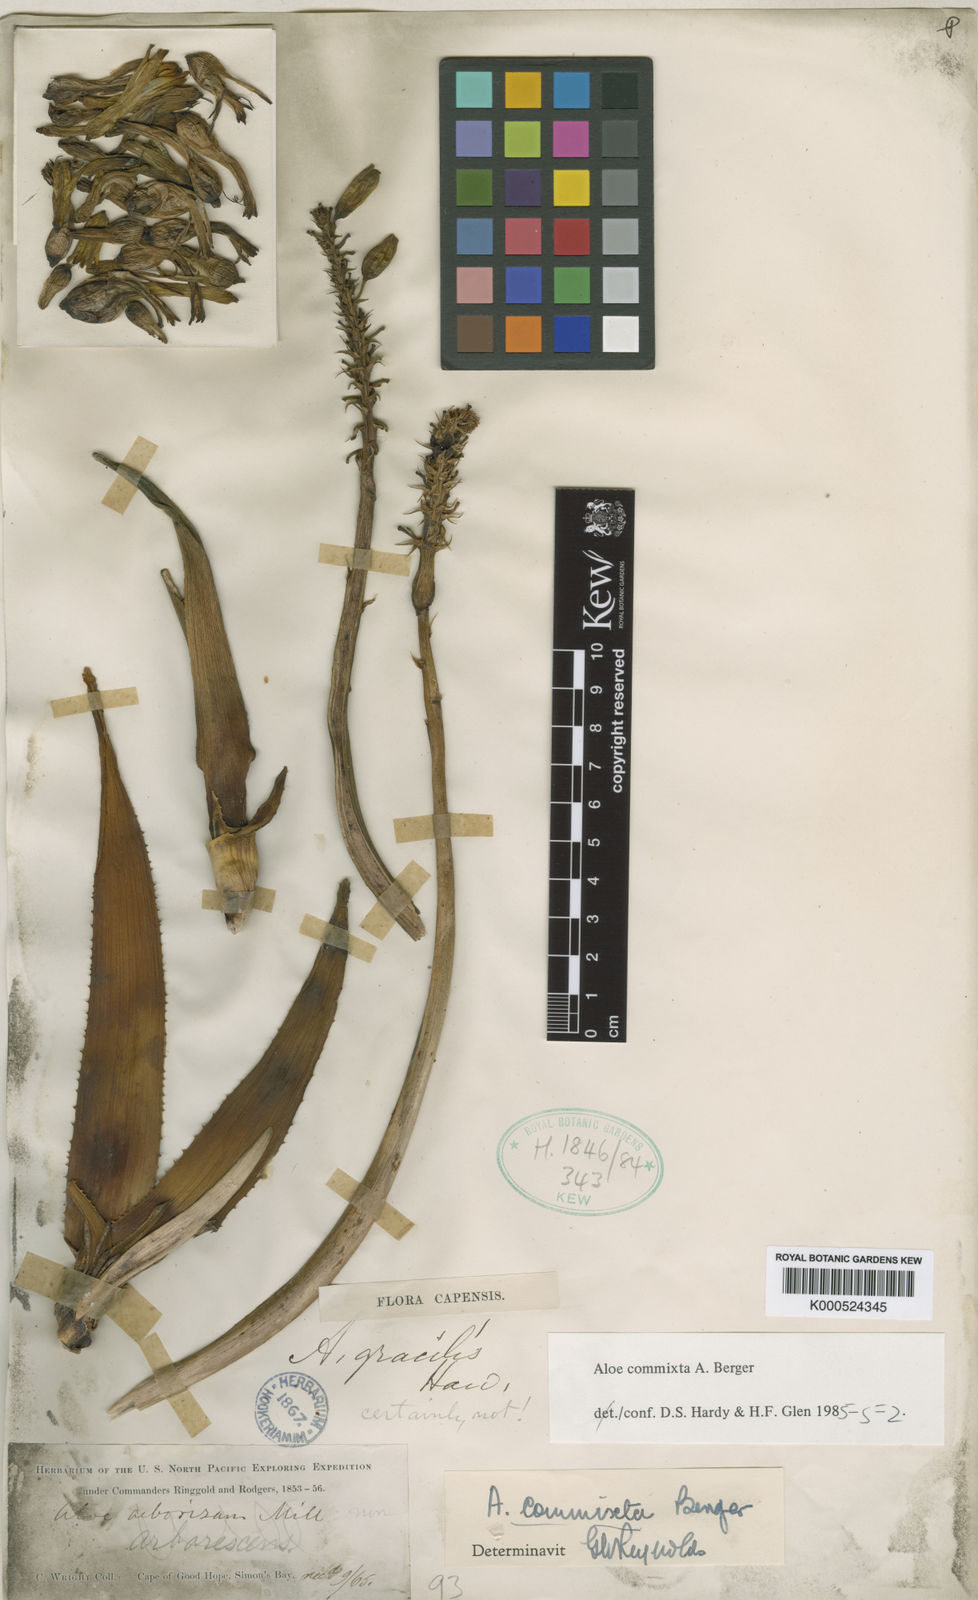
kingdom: Plantae
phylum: Tracheophyta
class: Liliopsida
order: Asparagales
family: Asphodelaceae
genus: Aloiampelos
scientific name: Aloiampelos commixta
